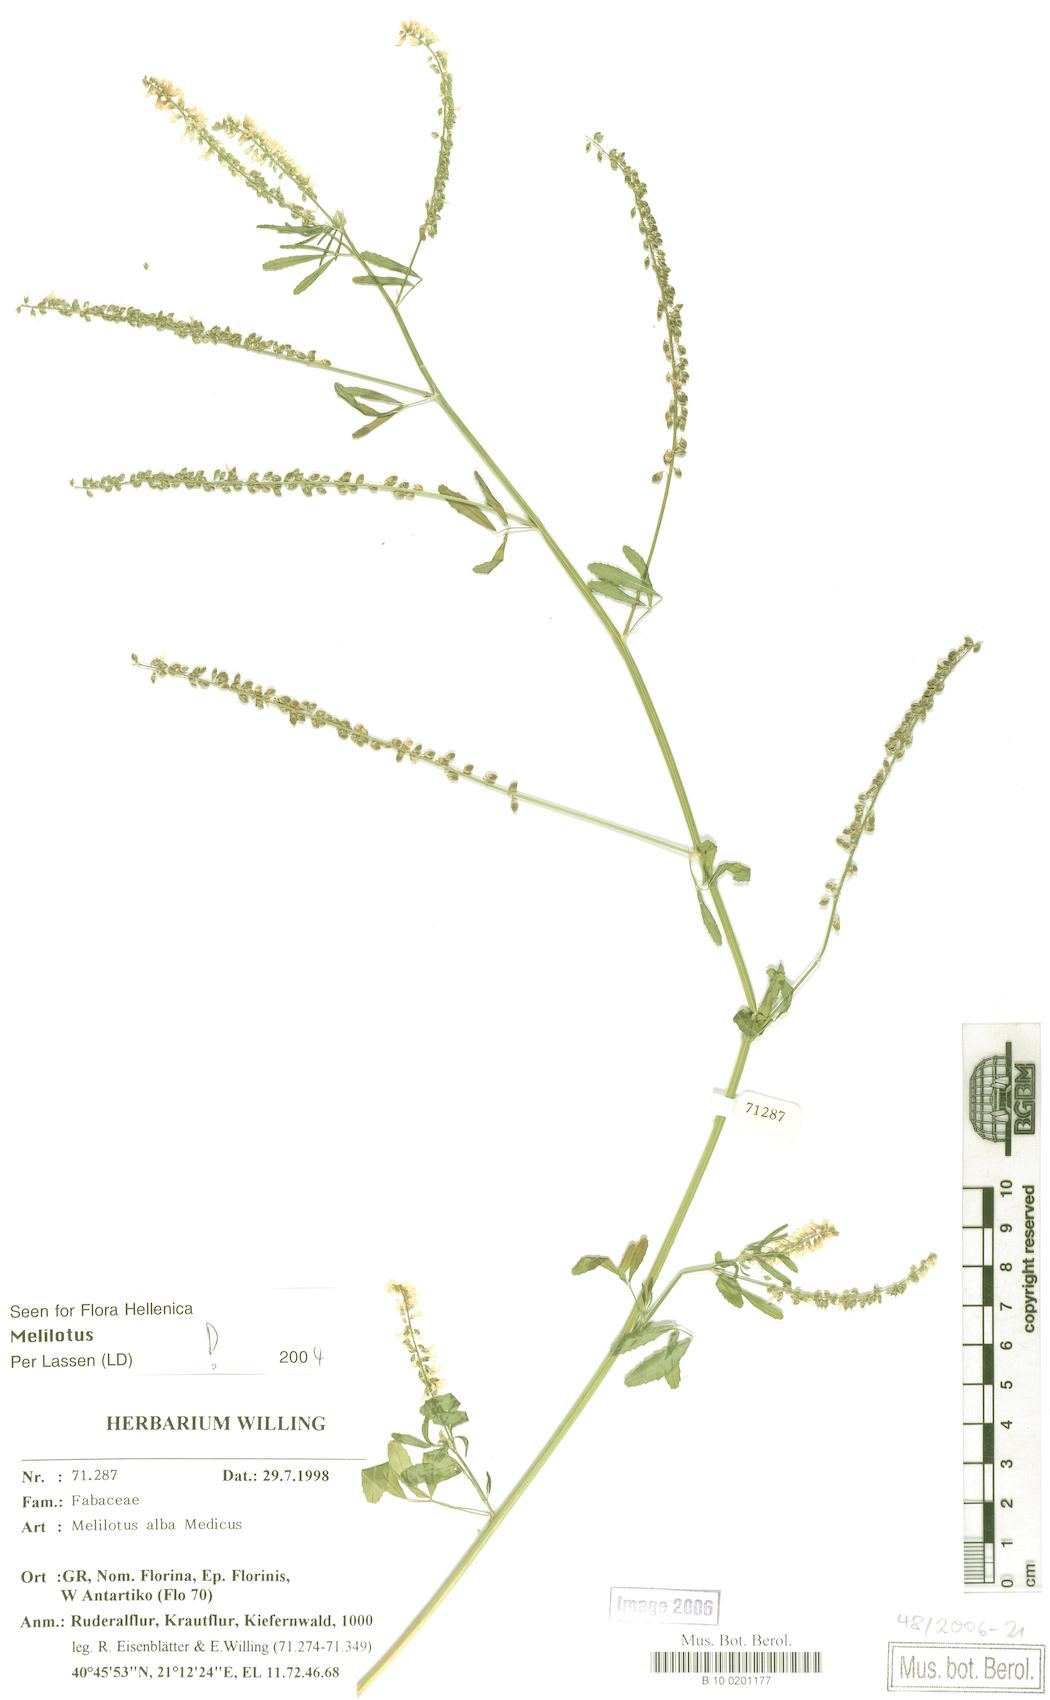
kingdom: Plantae
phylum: Tracheophyta
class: Magnoliopsida
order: Fabales
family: Fabaceae
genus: Melilotus
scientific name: Melilotus albus
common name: White melilot
